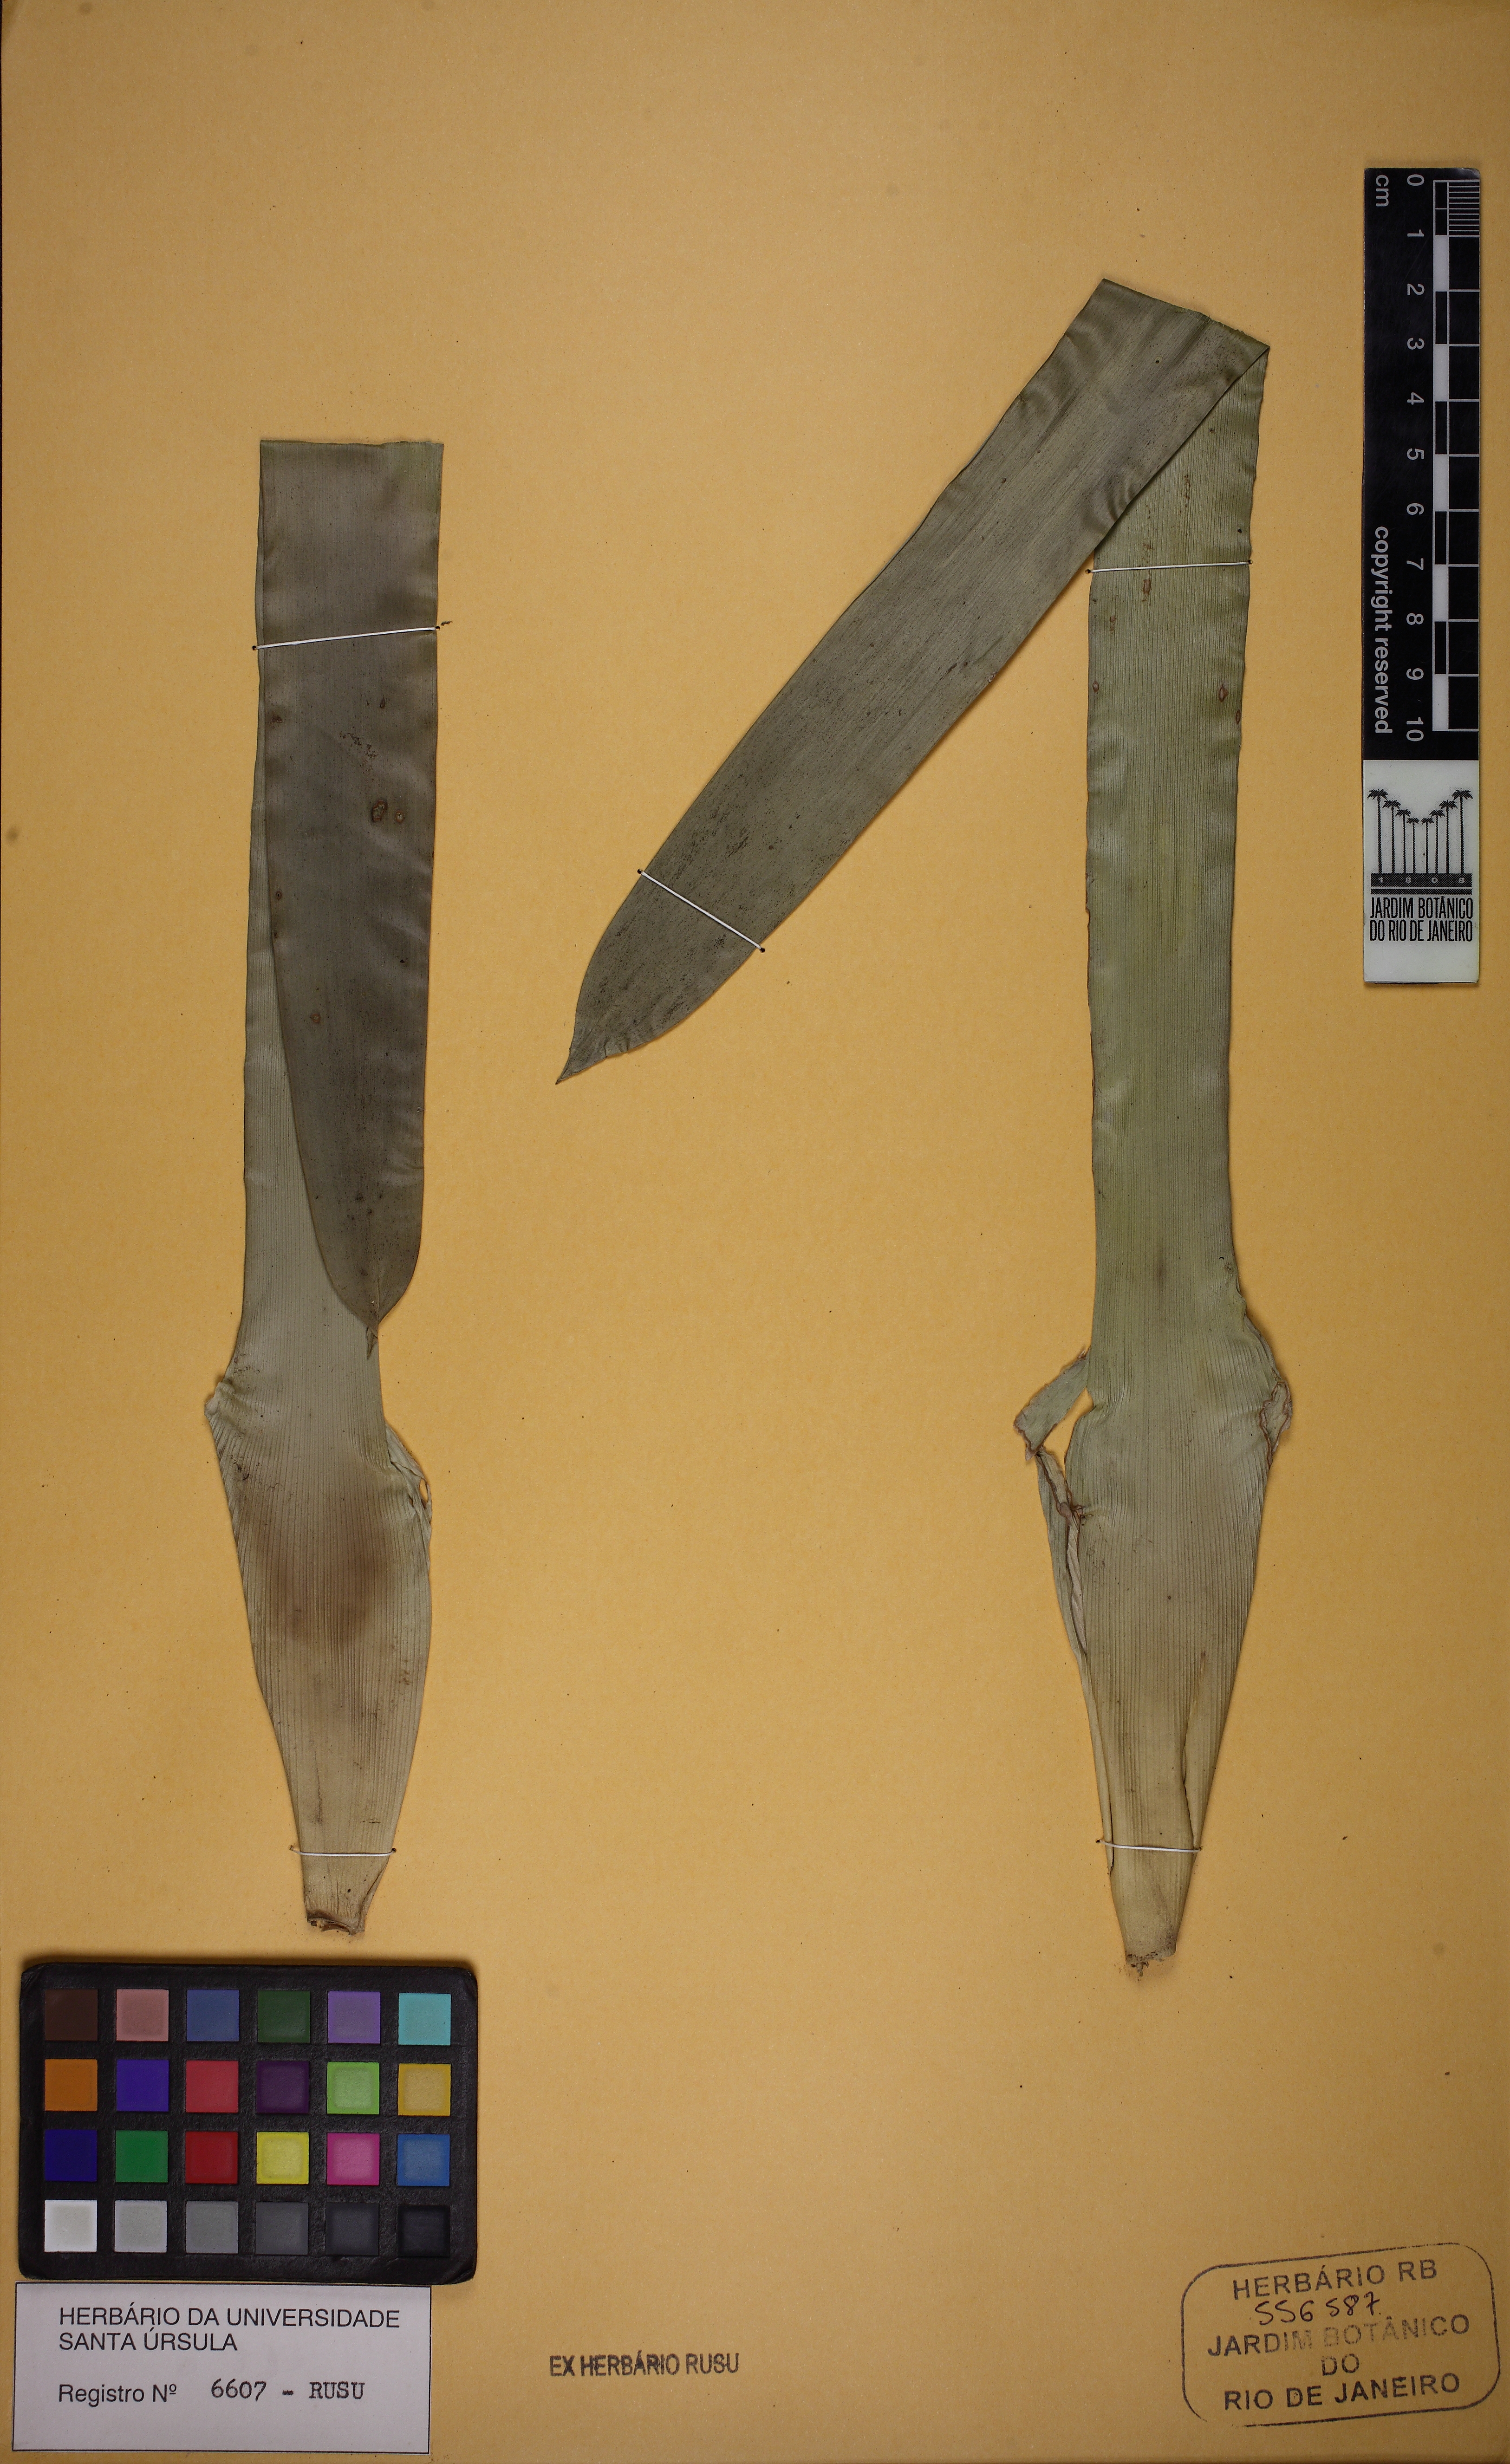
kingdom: Plantae
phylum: Tracheophyta
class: Liliopsida
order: Poales
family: Bromeliaceae
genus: Vriesea
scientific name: Vriesea
